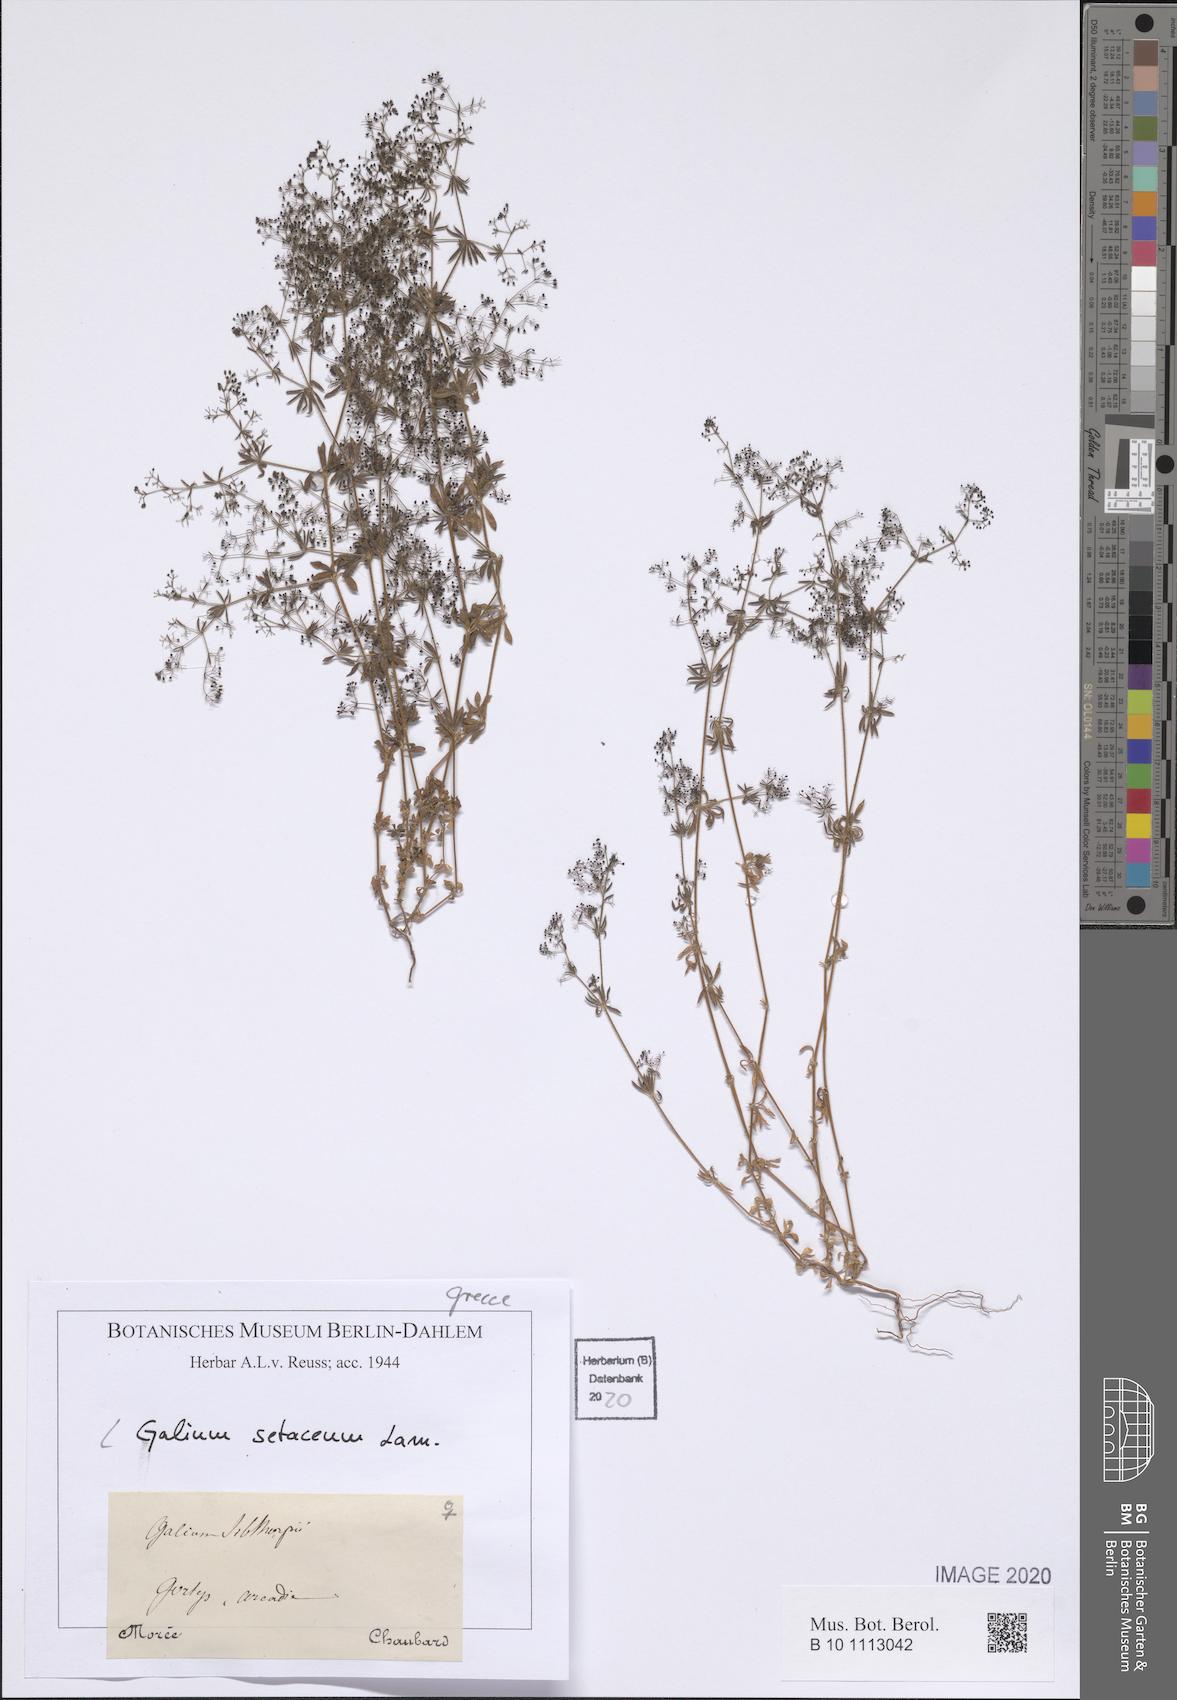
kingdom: Plantae
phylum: Tracheophyta
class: Magnoliopsida
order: Gentianales
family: Rubiaceae
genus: Galium
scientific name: Galium setaceum
